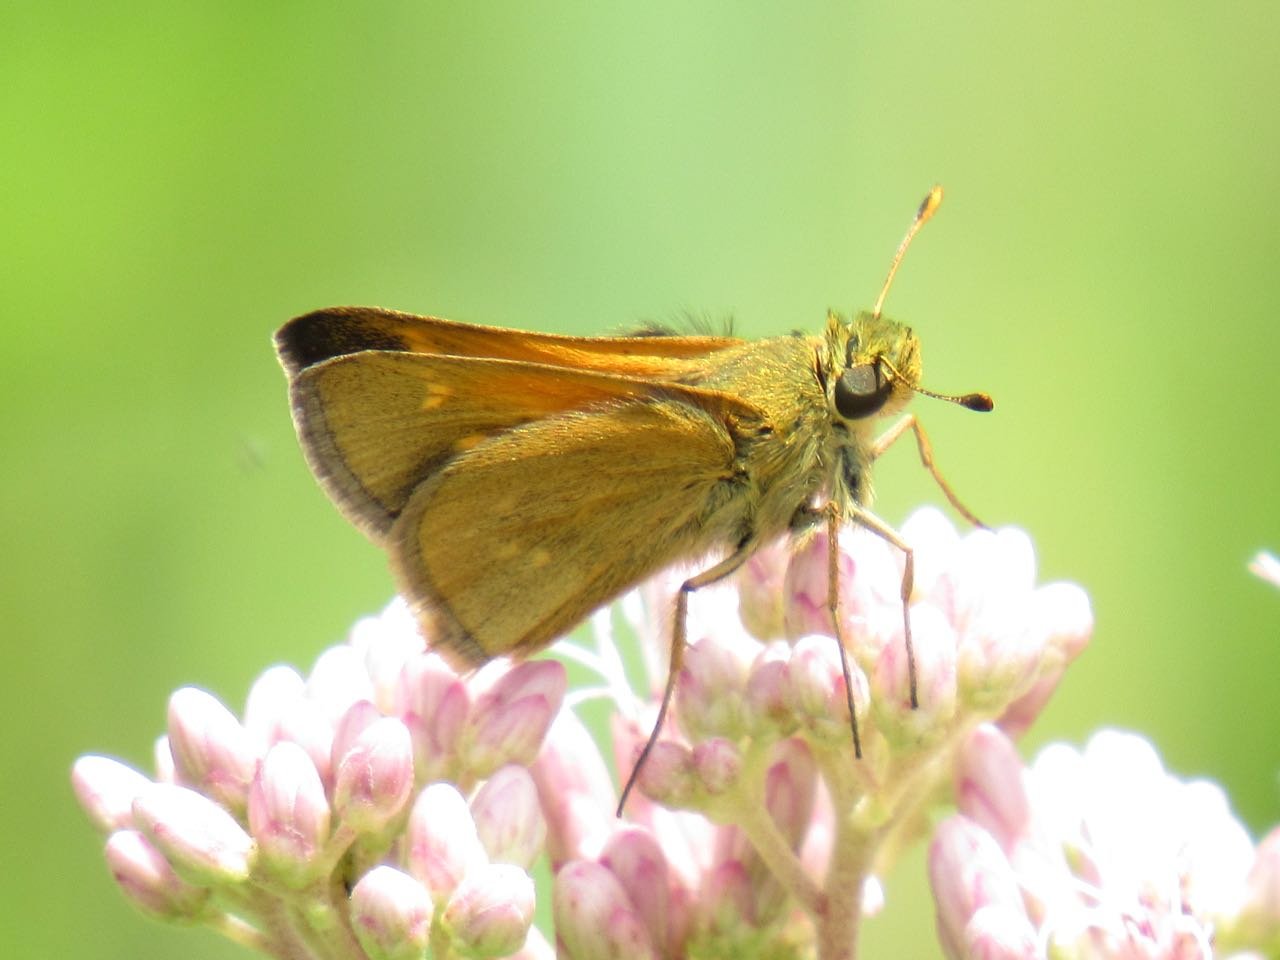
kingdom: Animalia
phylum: Arthropoda
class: Insecta
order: Lepidoptera
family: Hesperiidae
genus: Atrytone
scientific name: Atrytone delaware
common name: Delaware Skipper
